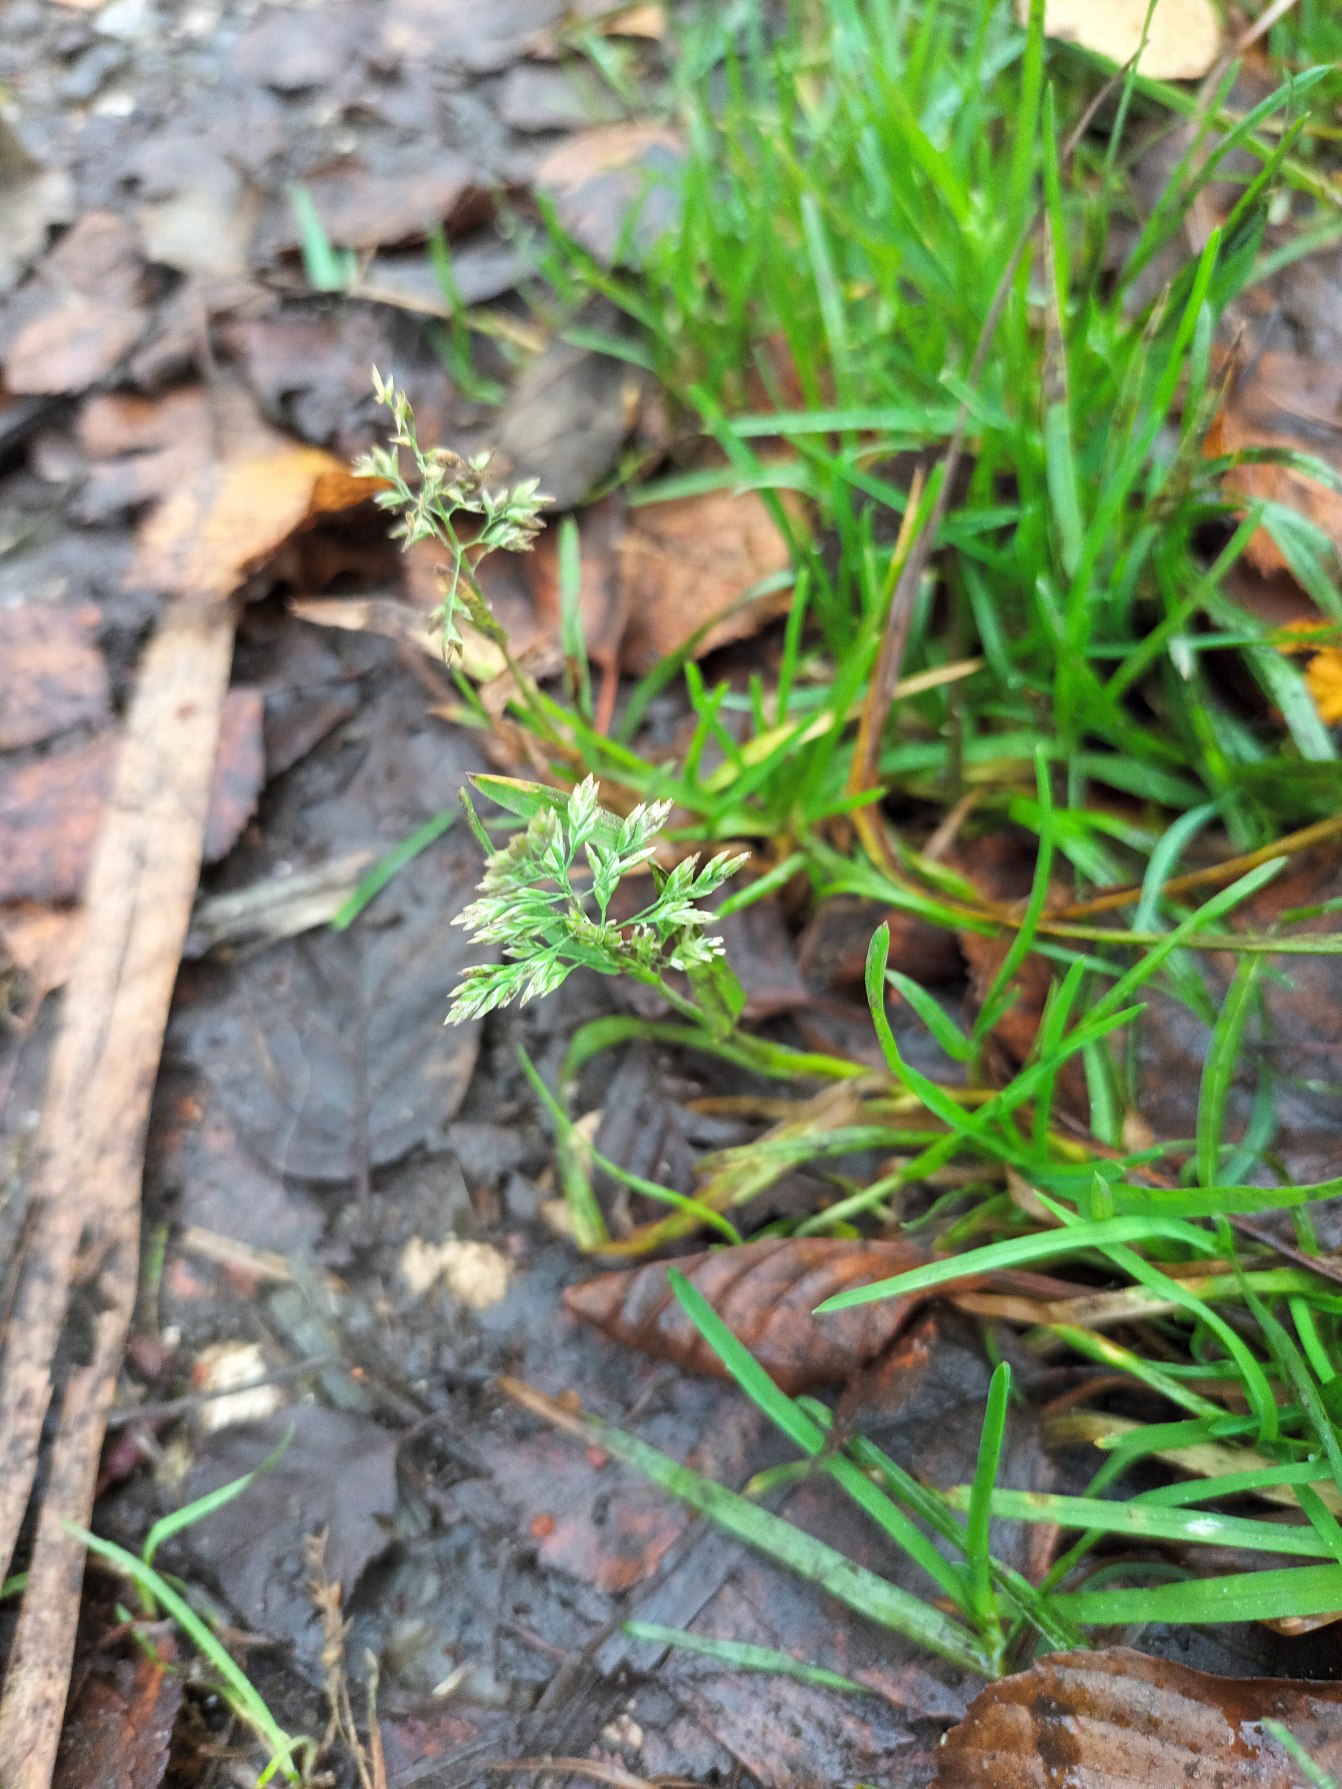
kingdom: Plantae
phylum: Tracheophyta
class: Liliopsida
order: Poales
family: Poaceae
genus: Poa
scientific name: Poa annua
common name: Enårig rapgræs
